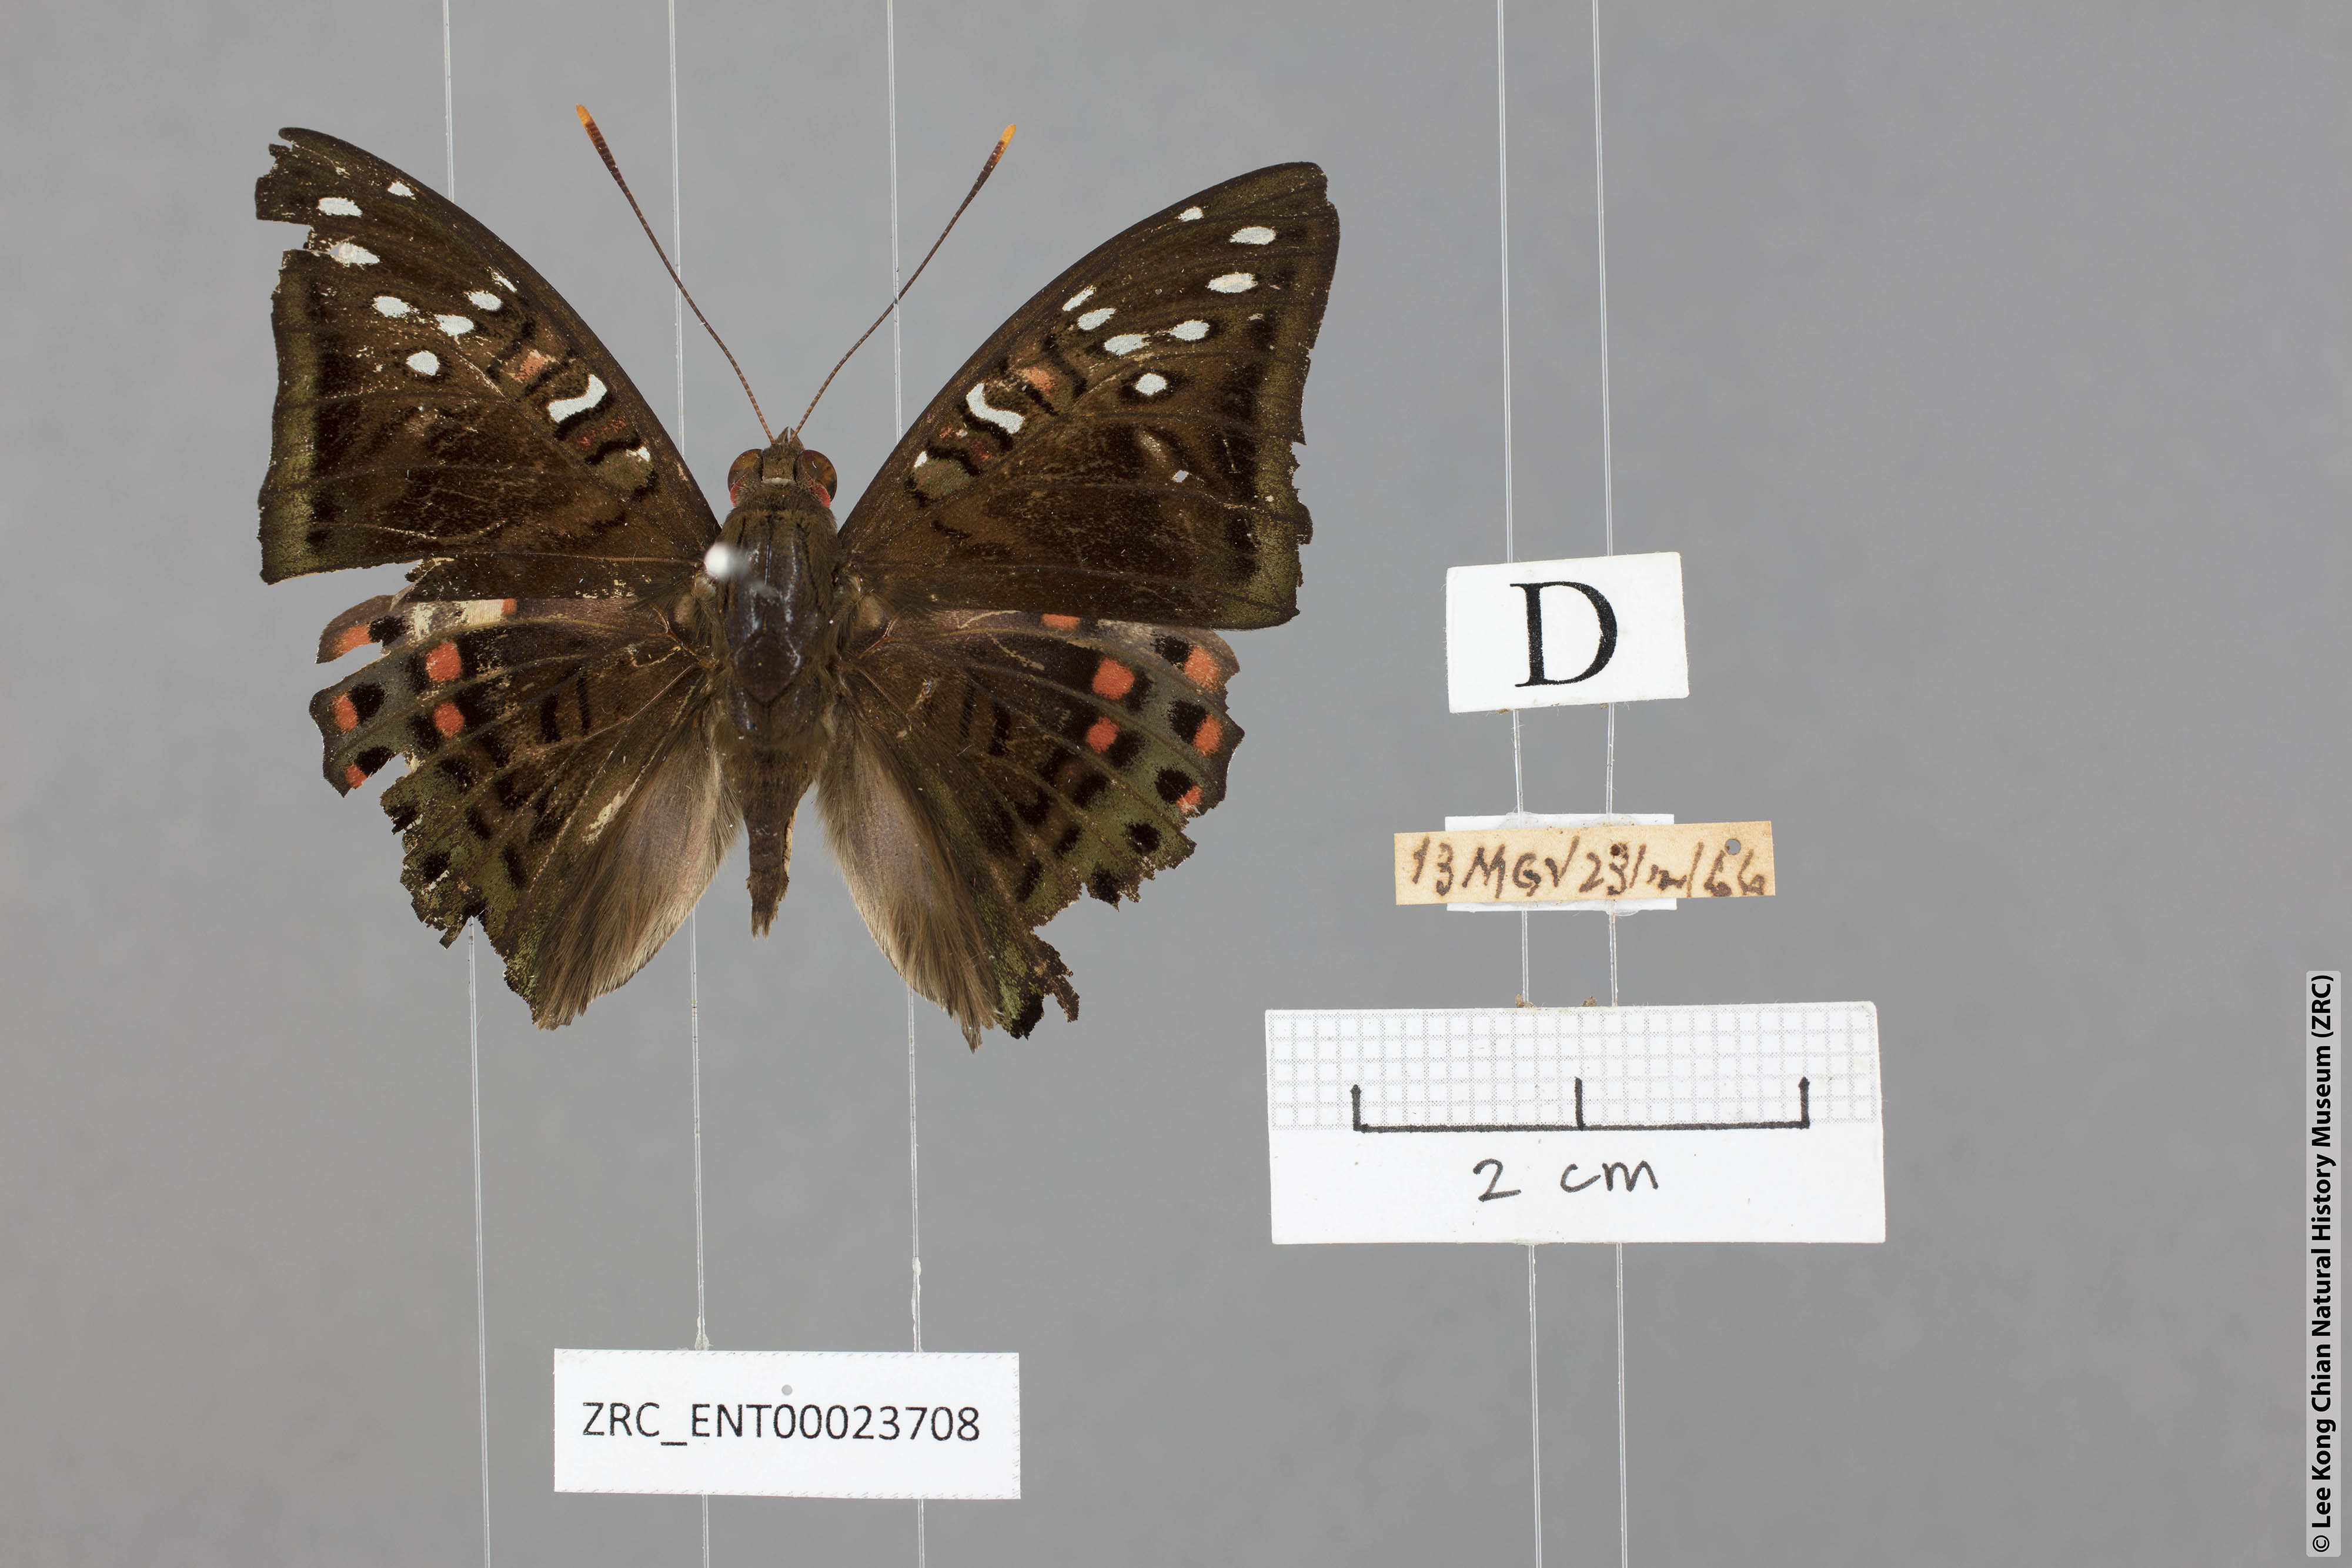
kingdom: Animalia
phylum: Arthropoda
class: Insecta
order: Lepidoptera
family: Nymphalidae
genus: Euthalia
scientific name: Euthalia malaccana
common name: Fruhstorfer's baron
